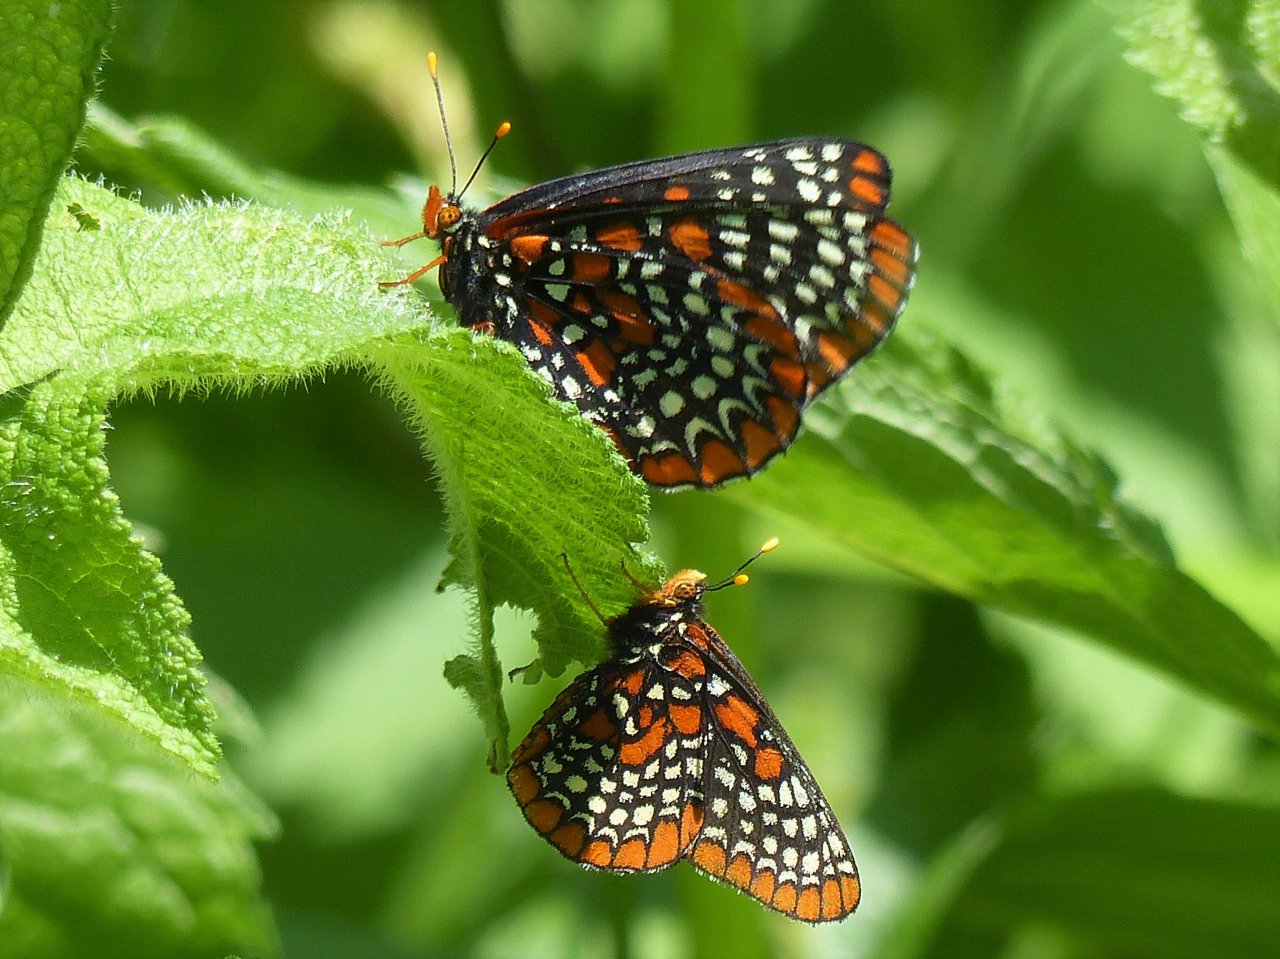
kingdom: Animalia
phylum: Arthropoda
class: Insecta
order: Lepidoptera
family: Nymphalidae
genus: Euphydryas
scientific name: Euphydryas phaeton
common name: Baltimore Checkerspot
